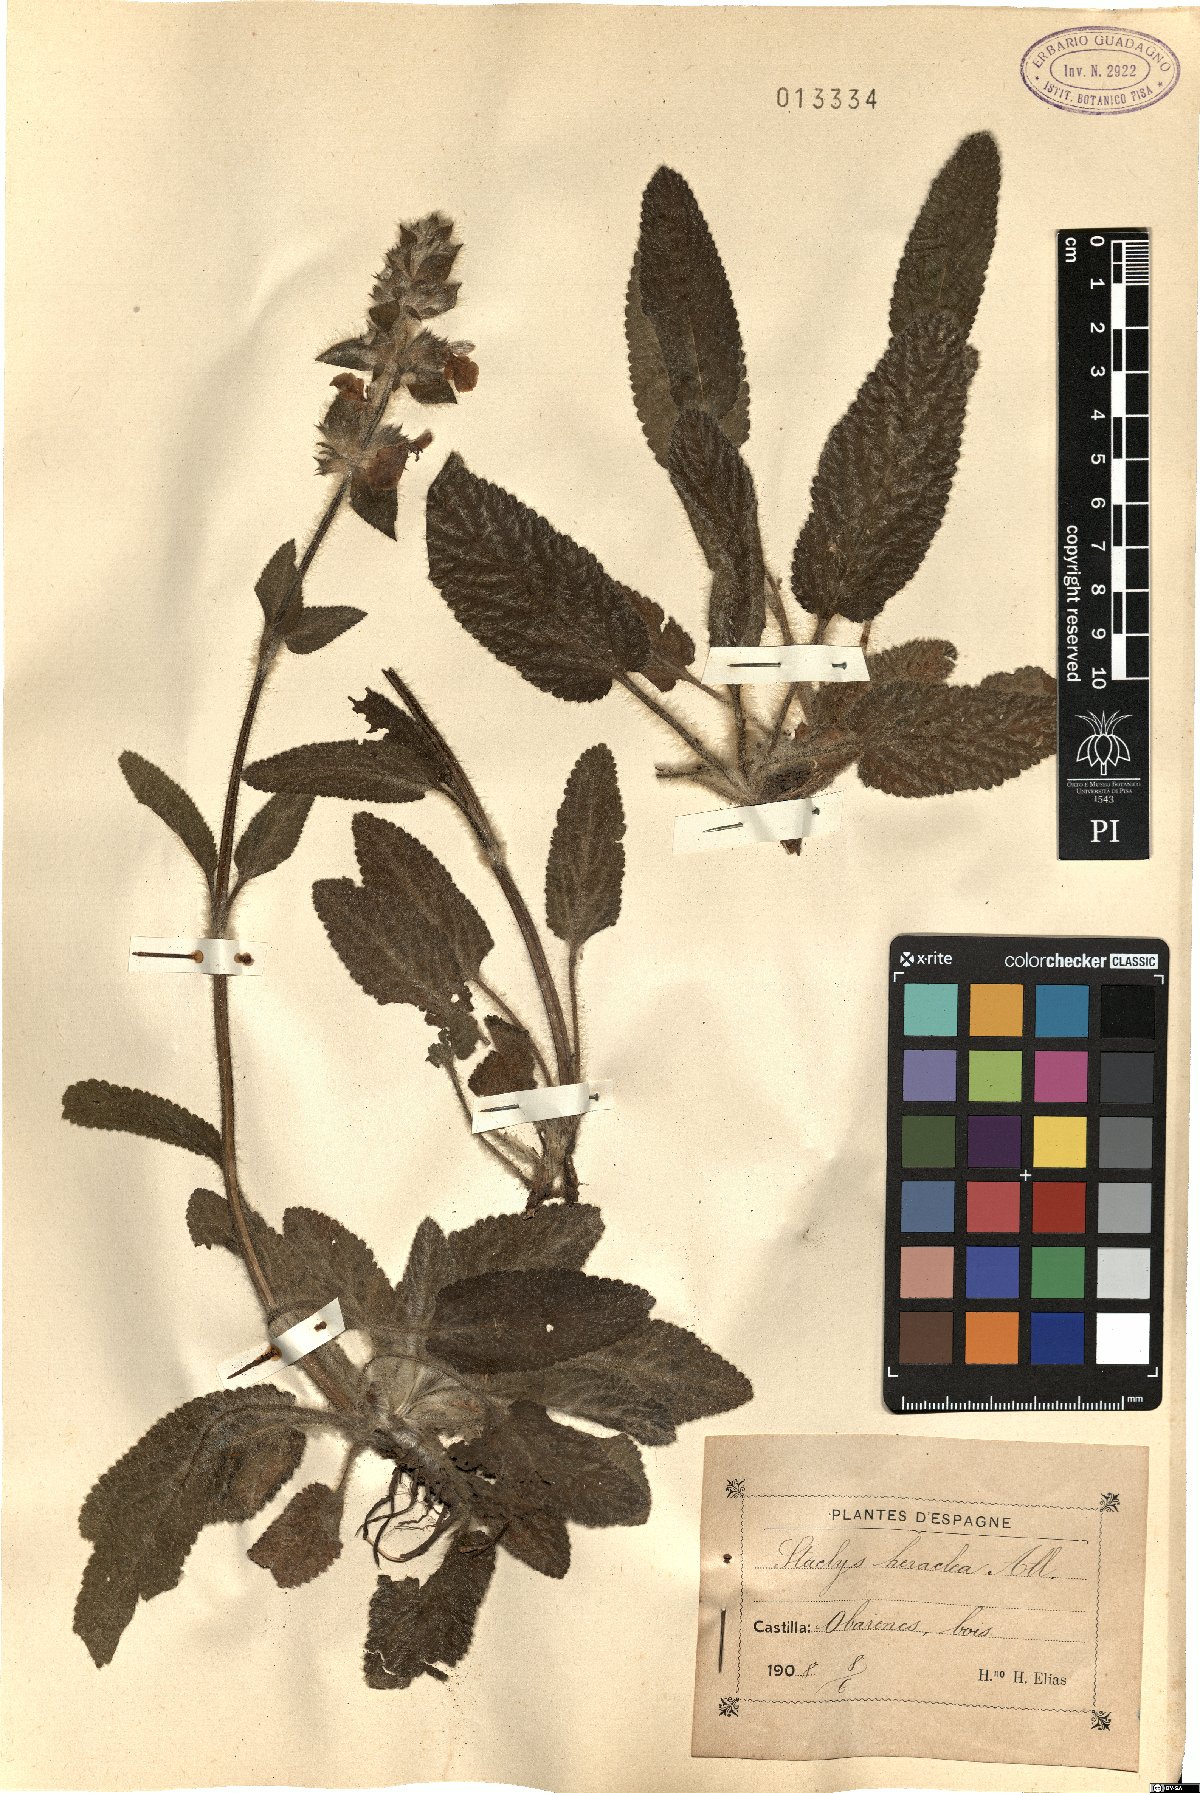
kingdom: Plantae
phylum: Tracheophyta
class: Magnoliopsida
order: Lamiales
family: Lamiaceae
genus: Stachys
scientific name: Stachys heraclea
